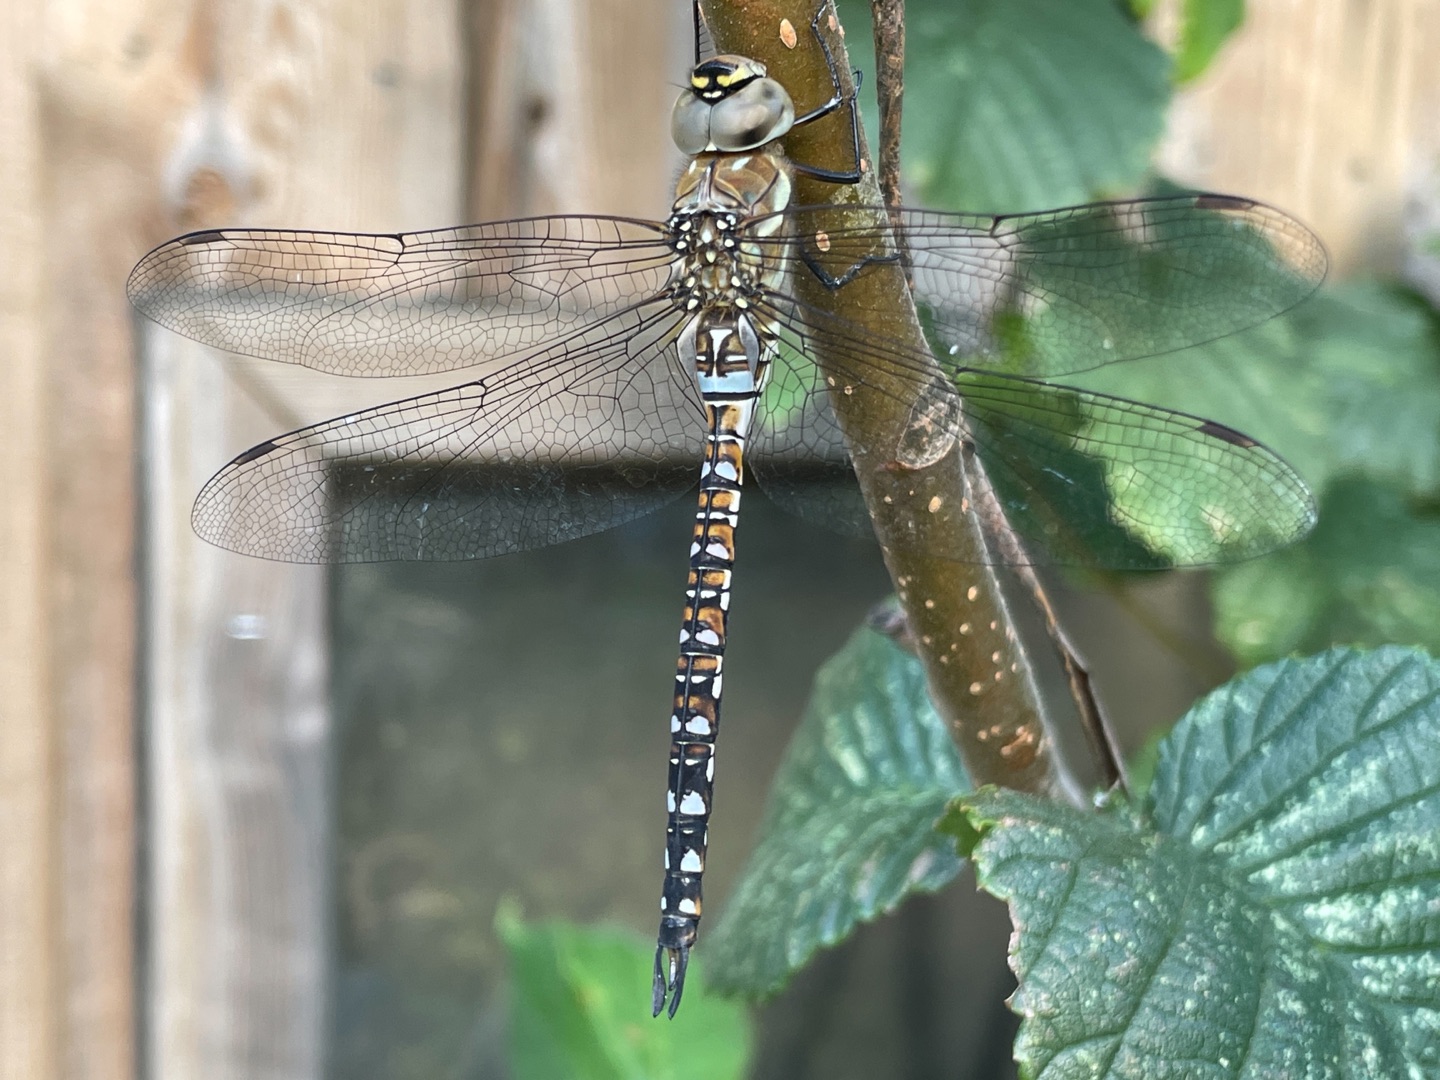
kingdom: Animalia
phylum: Arthropoda
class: Insecta
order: Odonata
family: Aeshnidae
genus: Aeshna
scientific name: Aeshna mixta
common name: Efterårs-mosaikguldsmed
